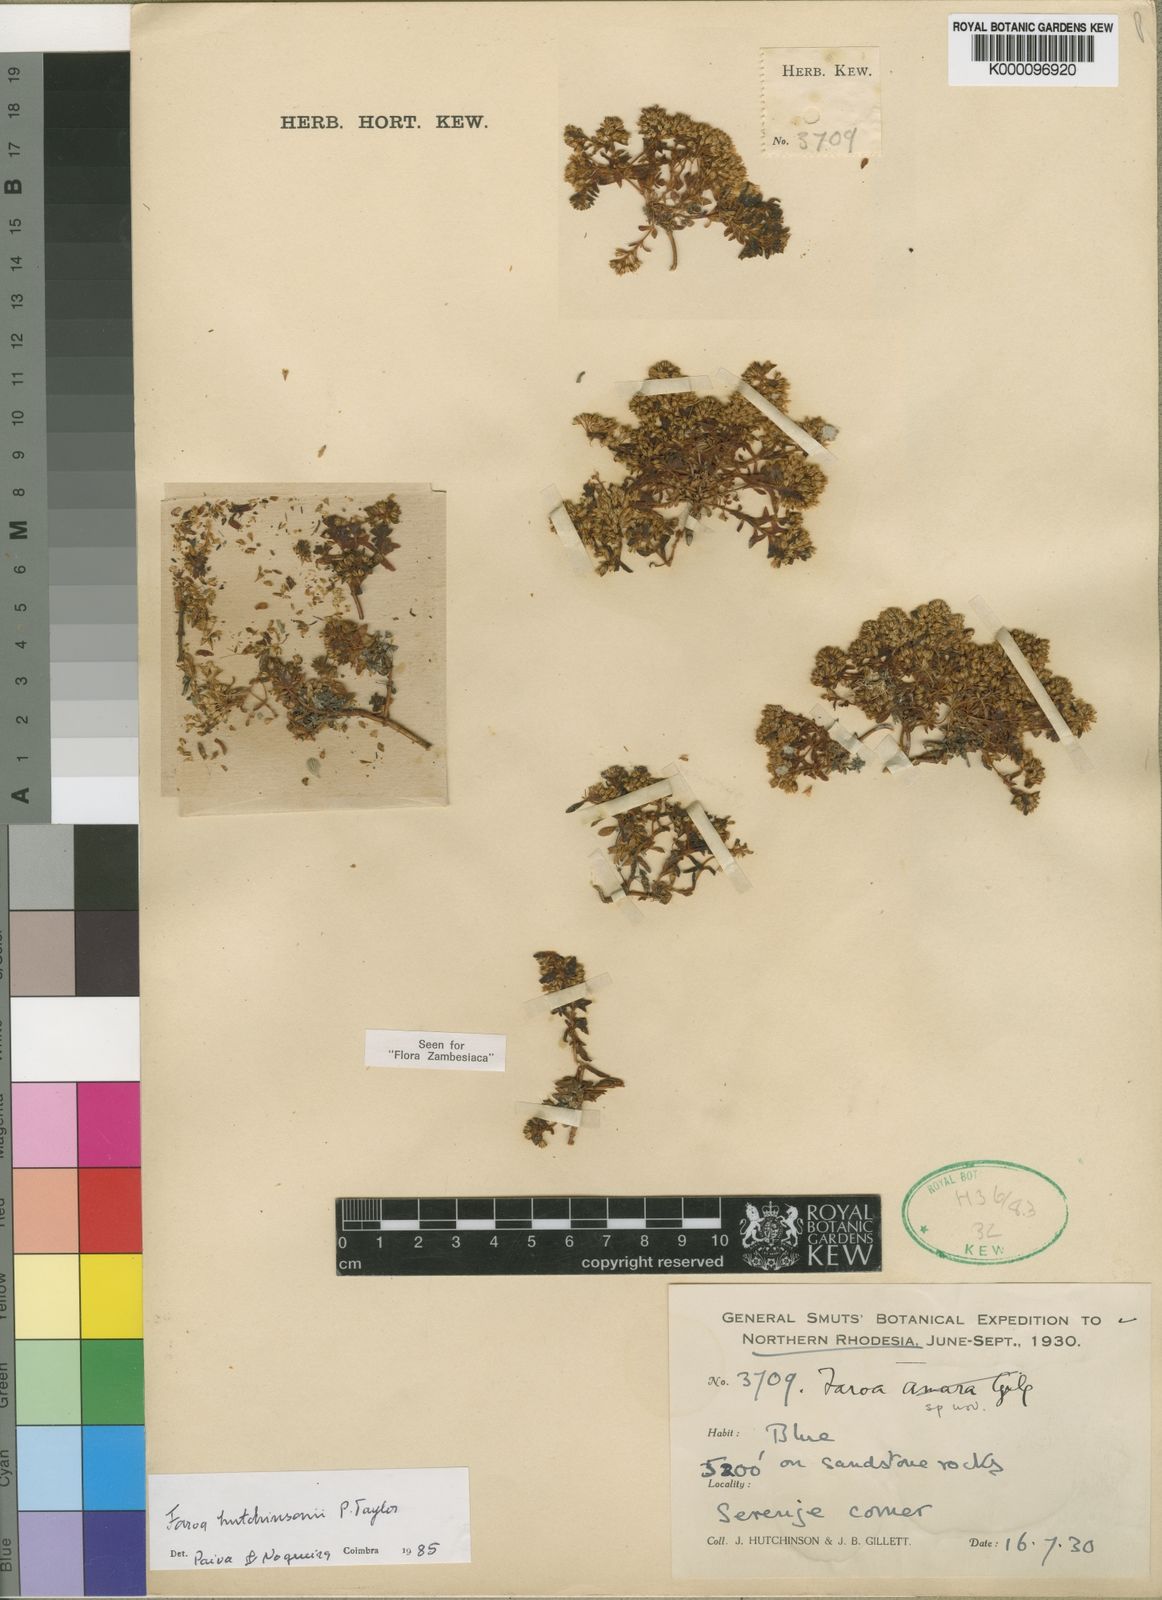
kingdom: Plantae
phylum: Tracheophyta
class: Magnoliopsida
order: Gentianales
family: Gentianaceae
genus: Faroa
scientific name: Faroa hutchinsonii
